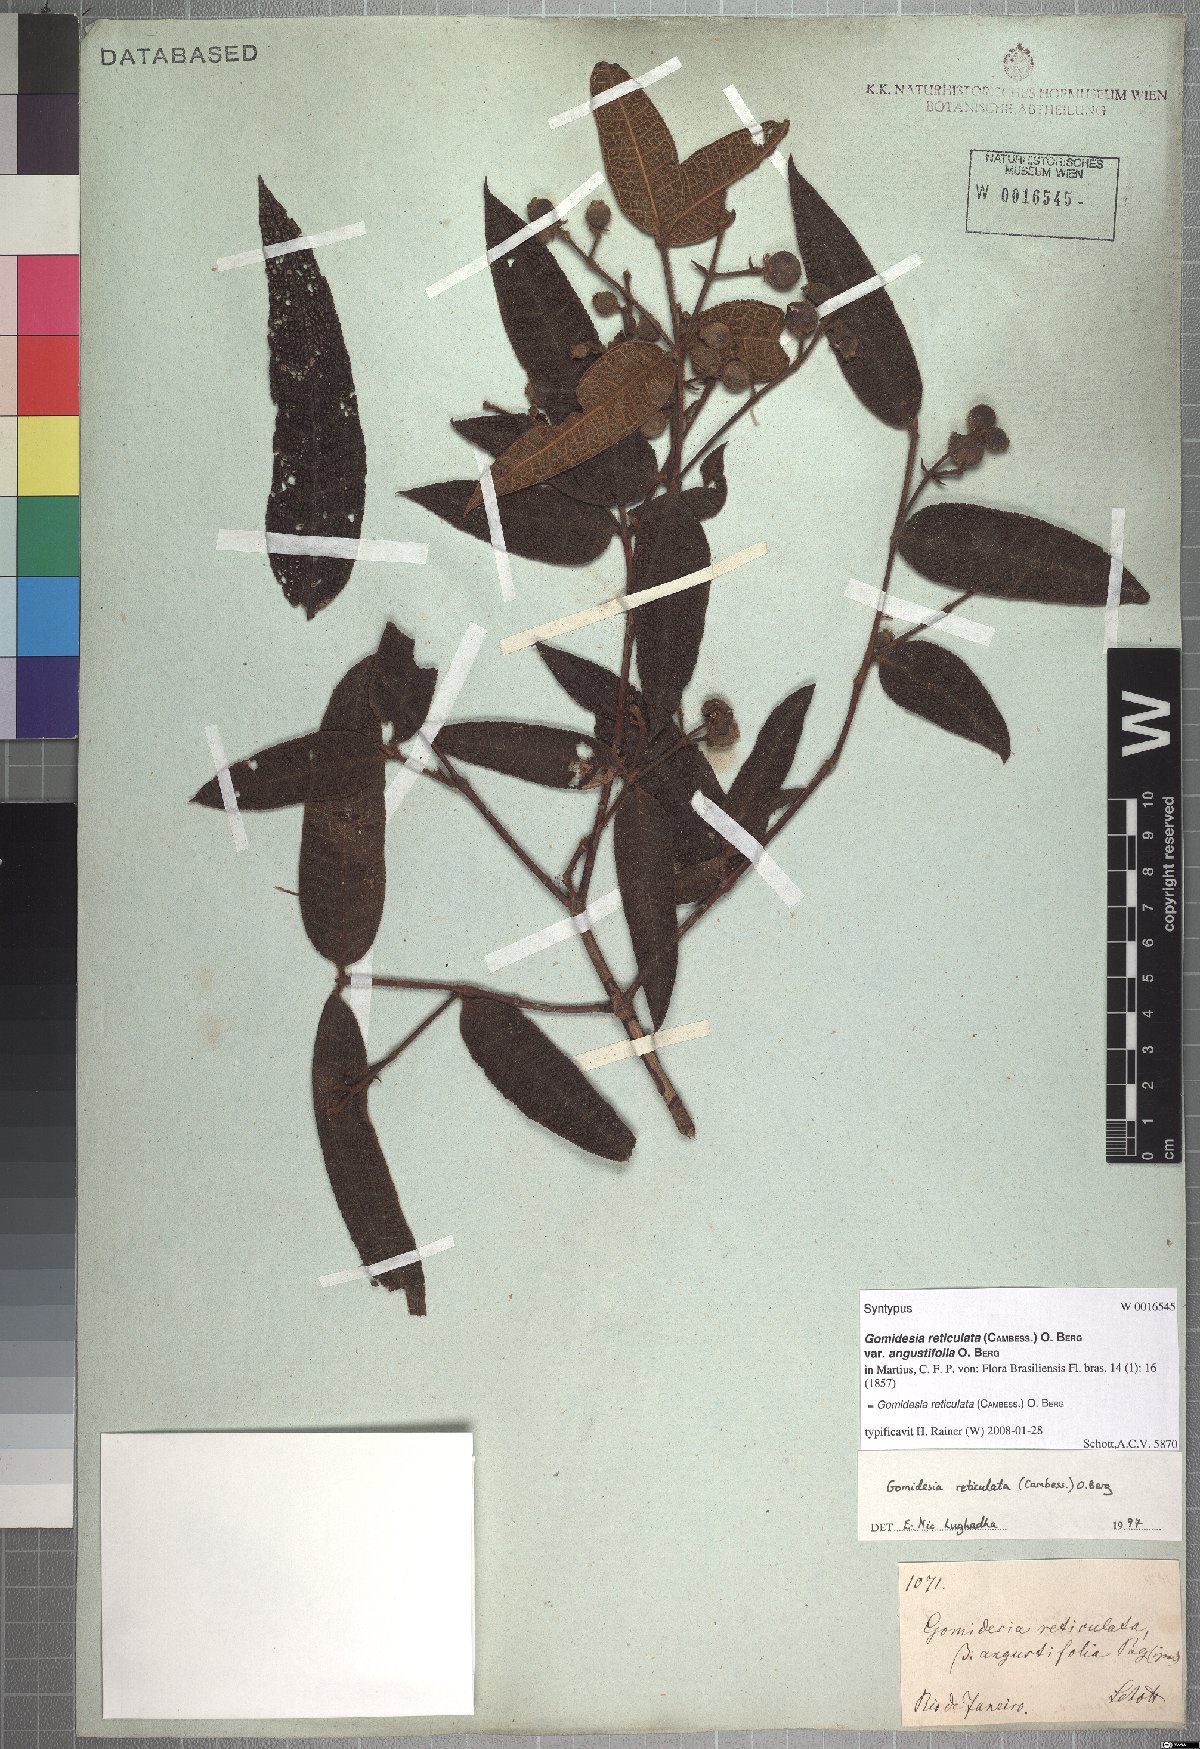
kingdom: Plantae
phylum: Tracheophyta
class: Magnoliopsida
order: Myrtales
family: Myrtaceae
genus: Myrcia
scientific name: Myrcia reticulata
